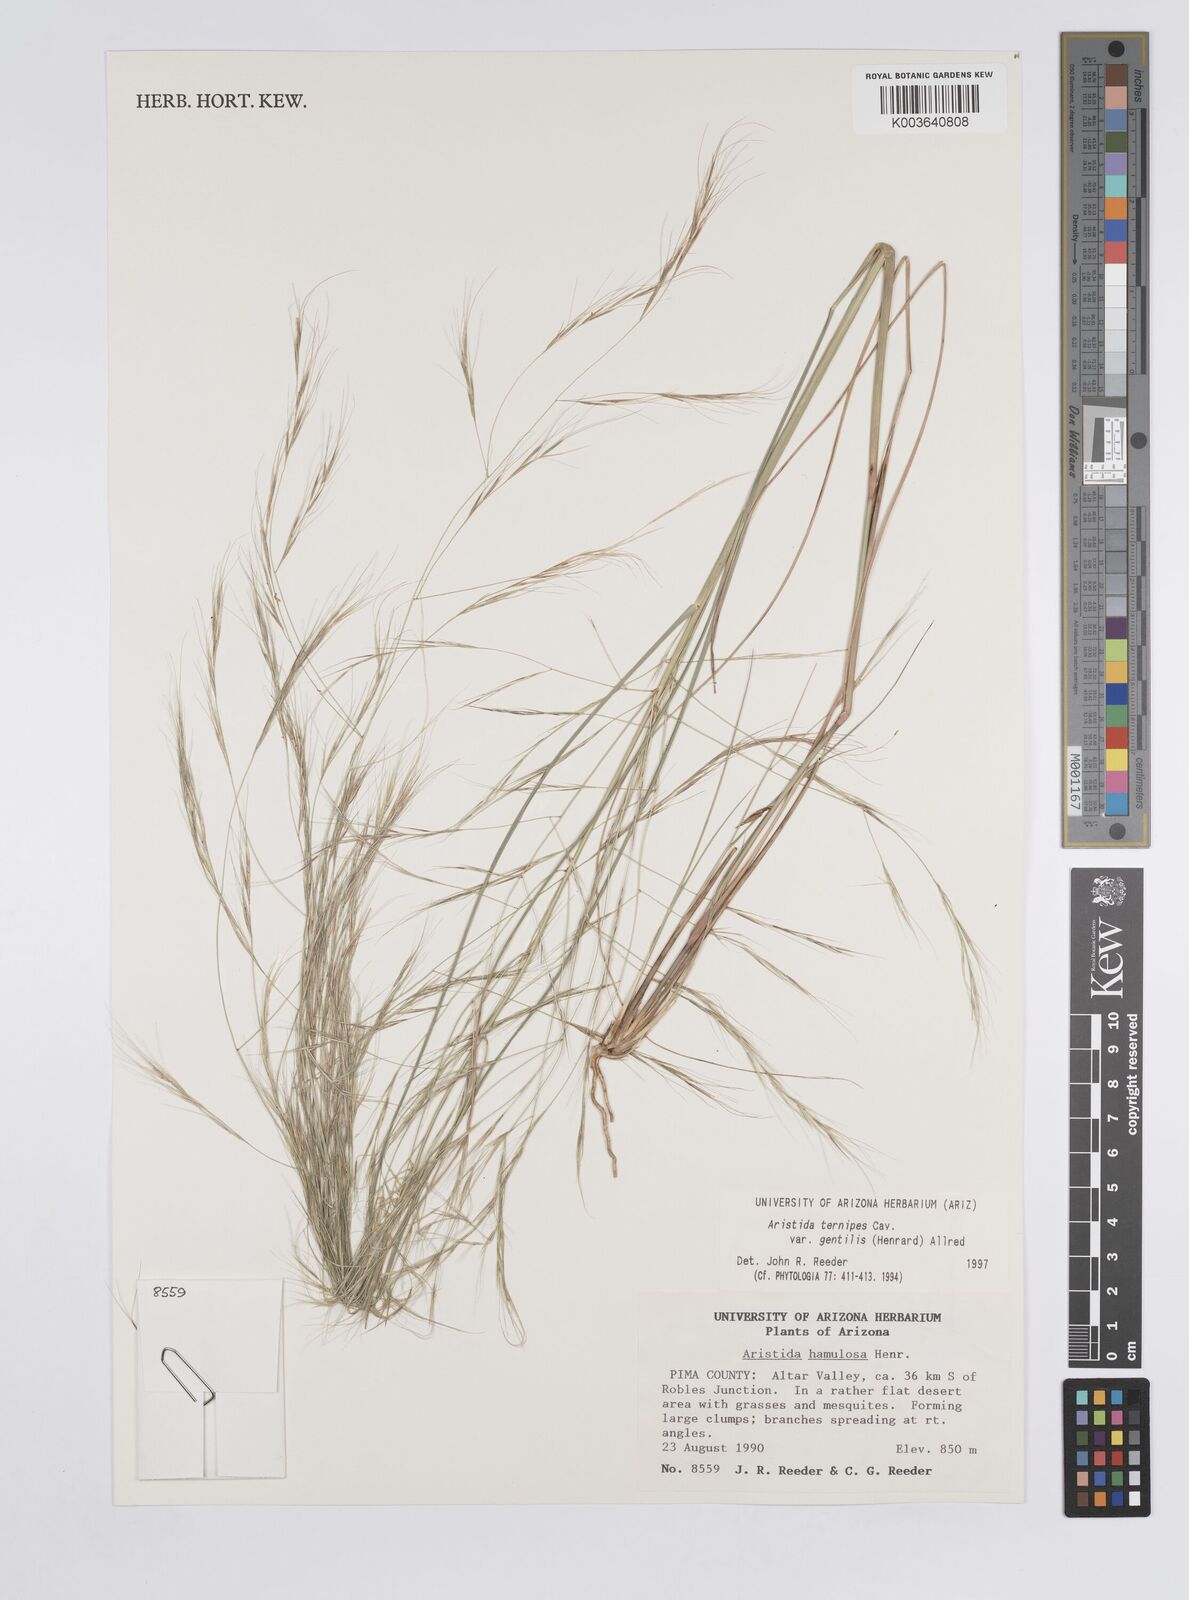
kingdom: Plantae
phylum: Tracheophyta
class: Liliopsida
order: Poales
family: Poaceae
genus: Aristida
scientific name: Aristida hamulosa
